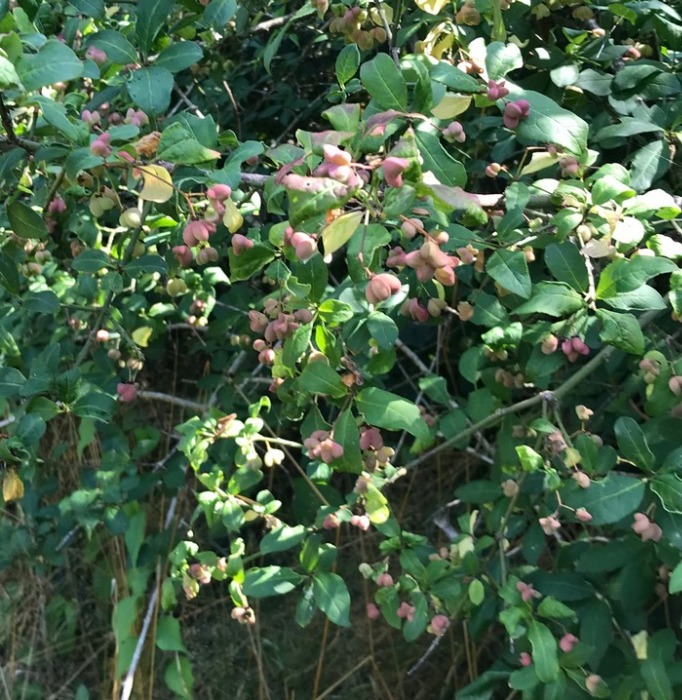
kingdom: Plantae
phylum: Tracheophyta
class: Magnoliopsida
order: Celastrales
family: Celastraceae
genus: Euonymus
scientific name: Euonymus europaeus
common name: Benved
